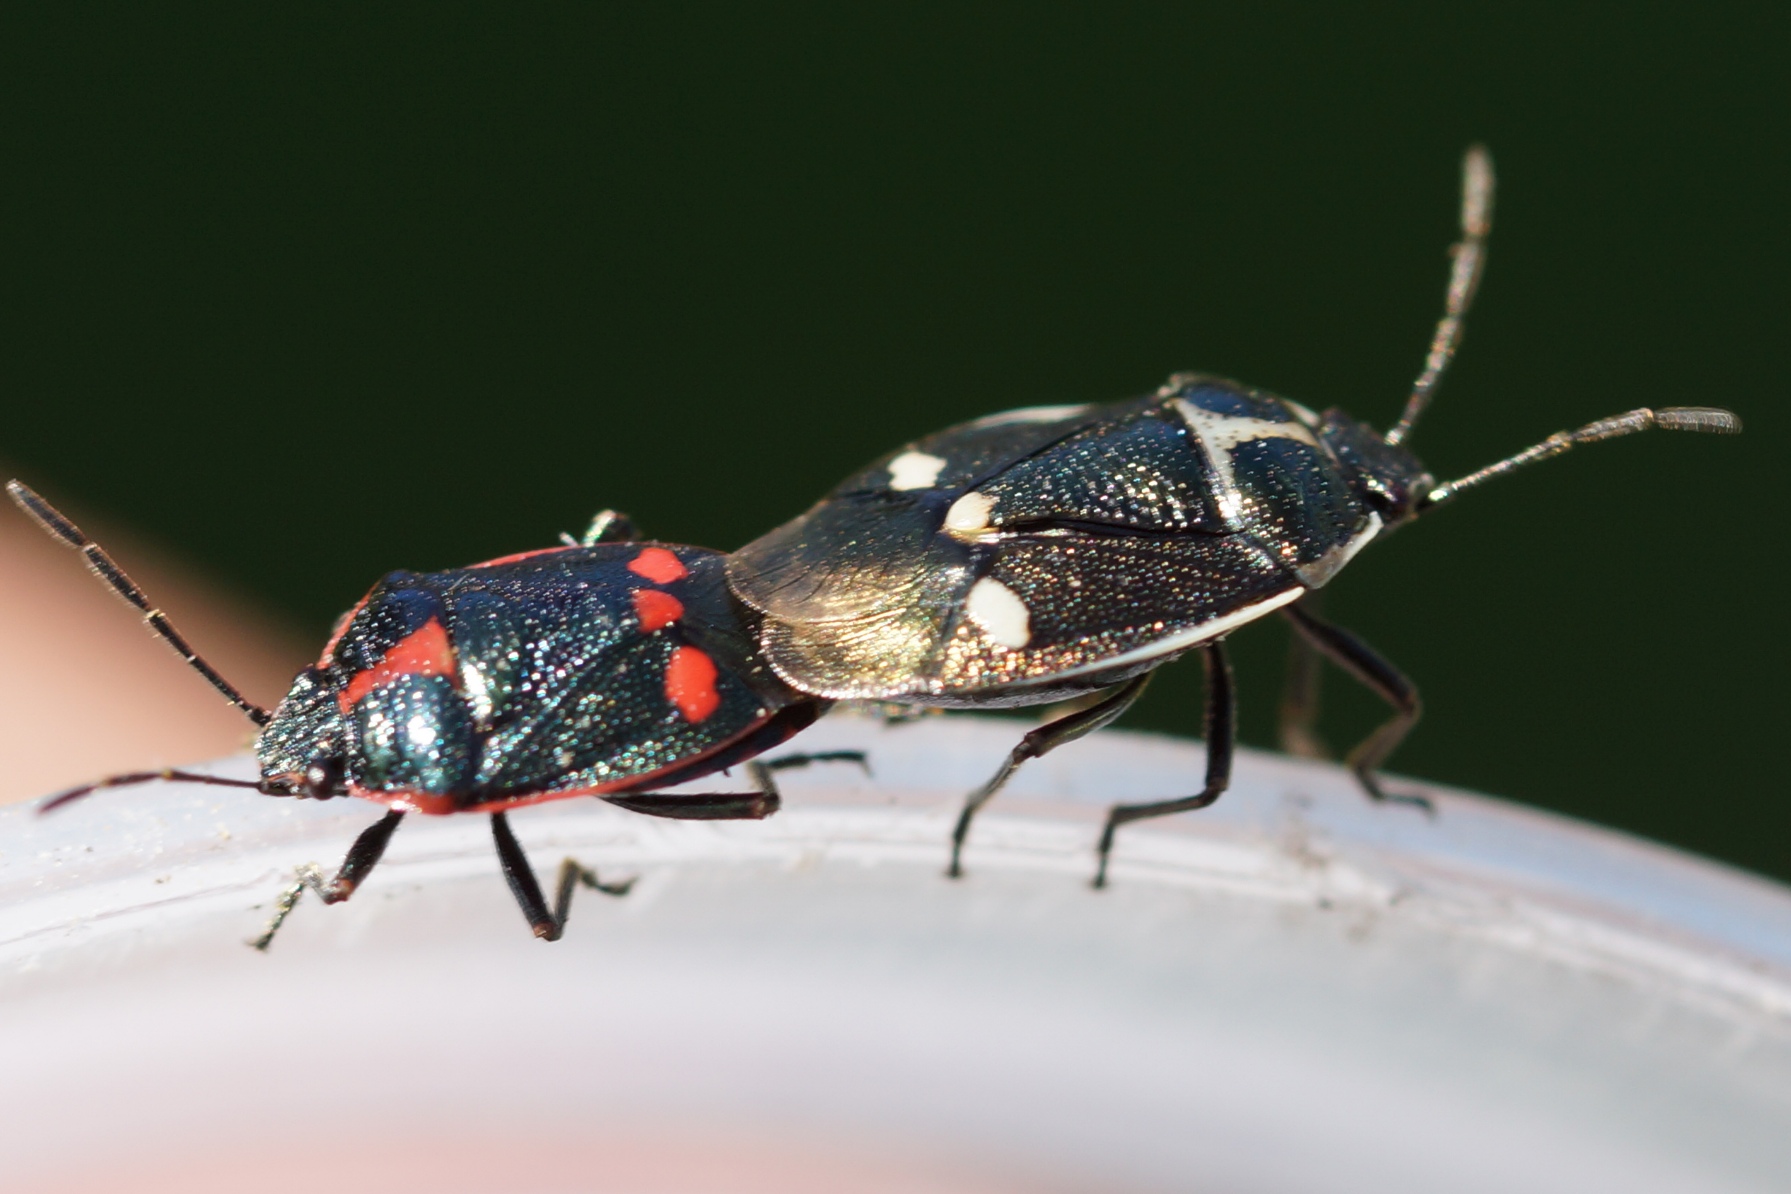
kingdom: Animalia
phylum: Arthropoda
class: Insecta
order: Hemiptera
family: Pentatomidae
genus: Eurydema
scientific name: Eurydema oleracea
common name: Almindelig kåltæge
